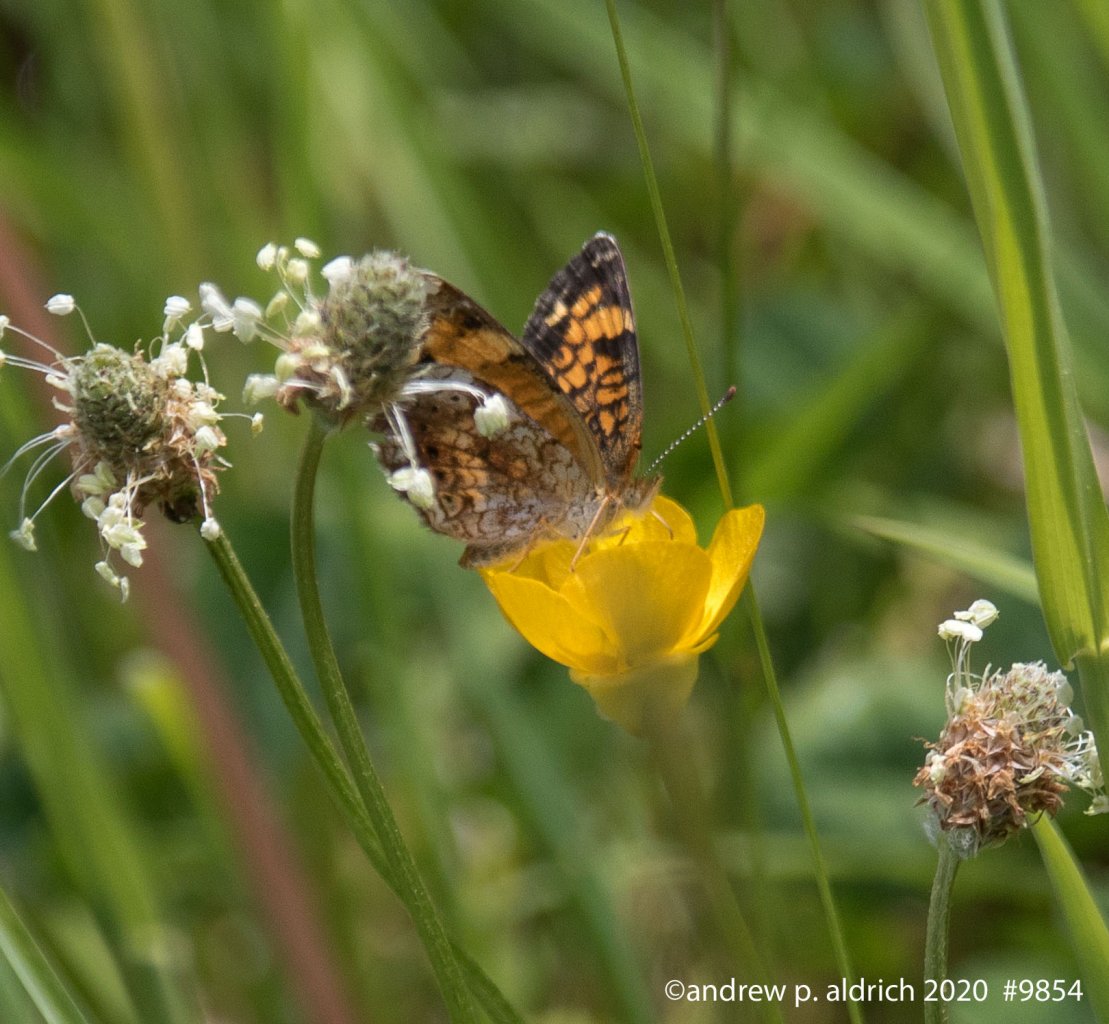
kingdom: Animalia
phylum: Arthropoda
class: Insecta
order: Lepidoptera
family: Nymphalidae
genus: Phyciodes
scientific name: Phyciodes
